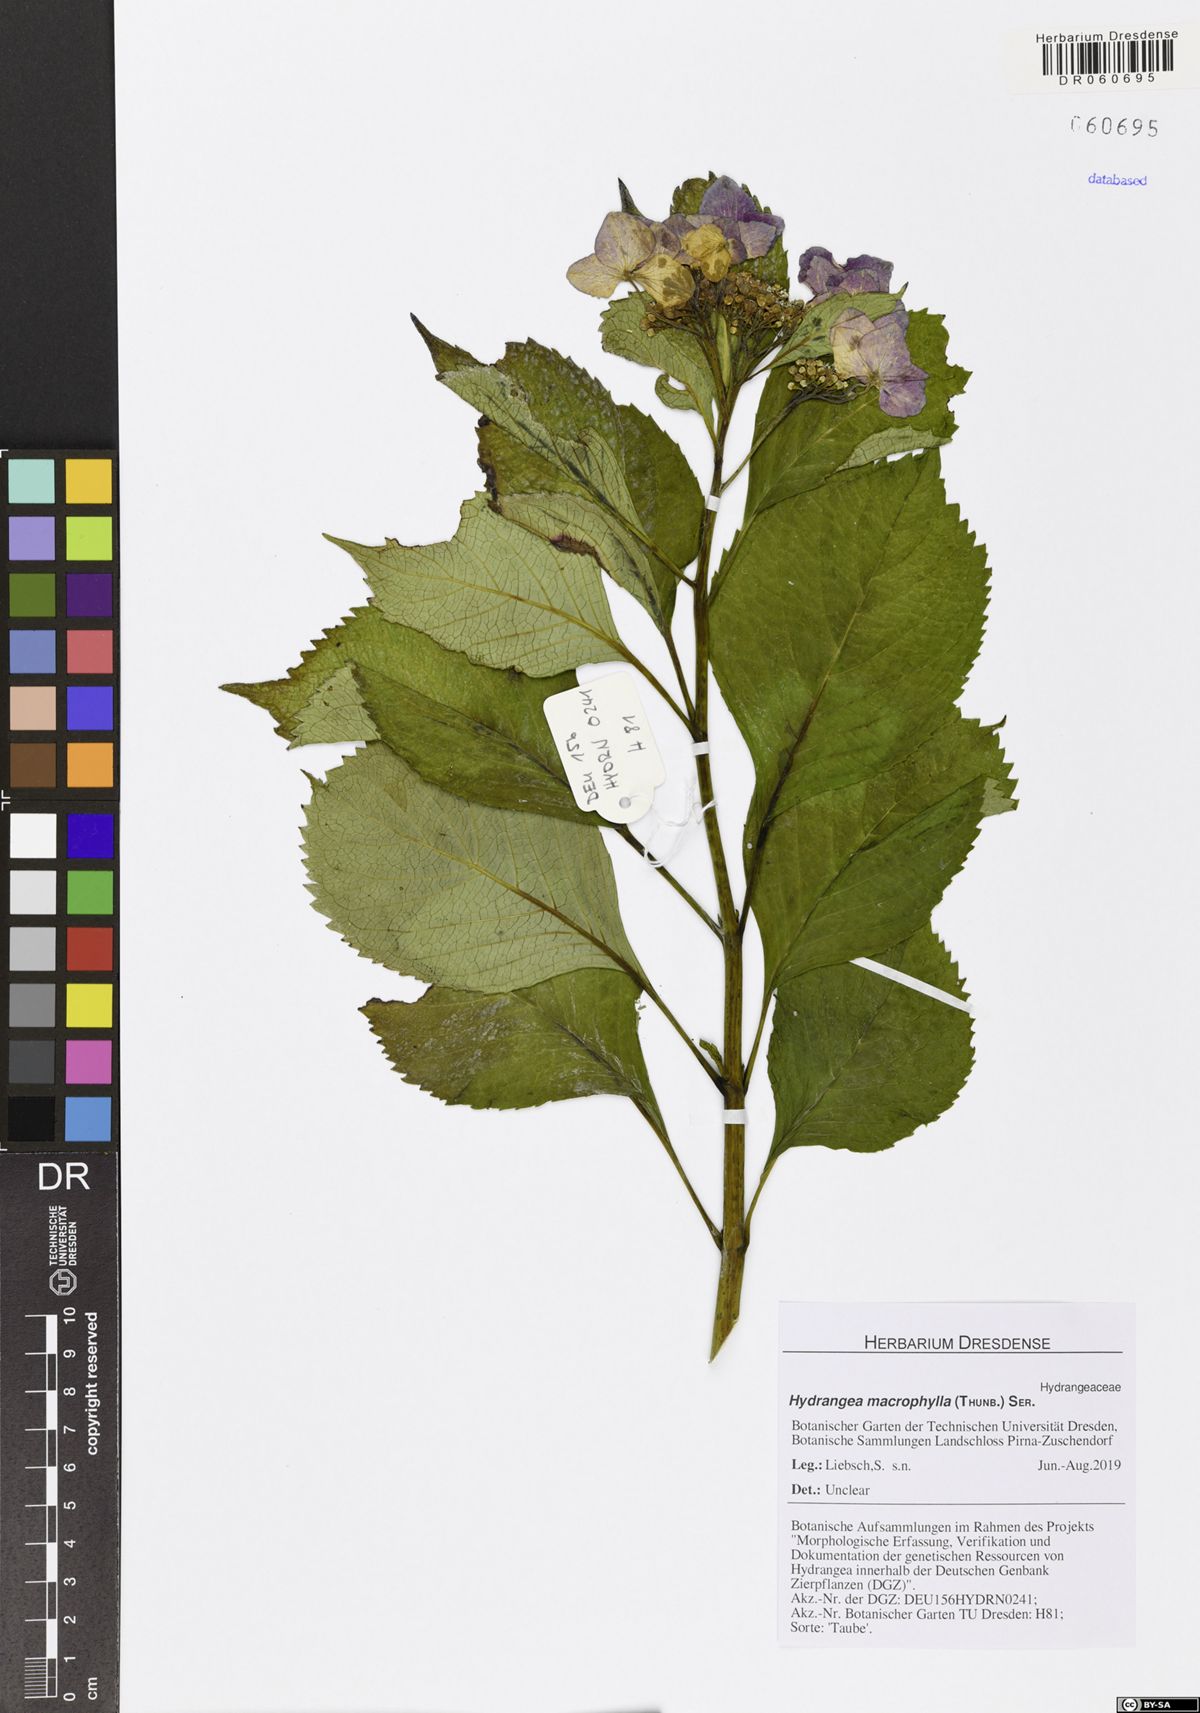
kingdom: Plantae
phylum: Tracheophyta
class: Magnoliopsida
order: Cornales
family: Hydrangeaceae
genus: Hydrangea
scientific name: Hydrangea macrophylla
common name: Hydrangea
